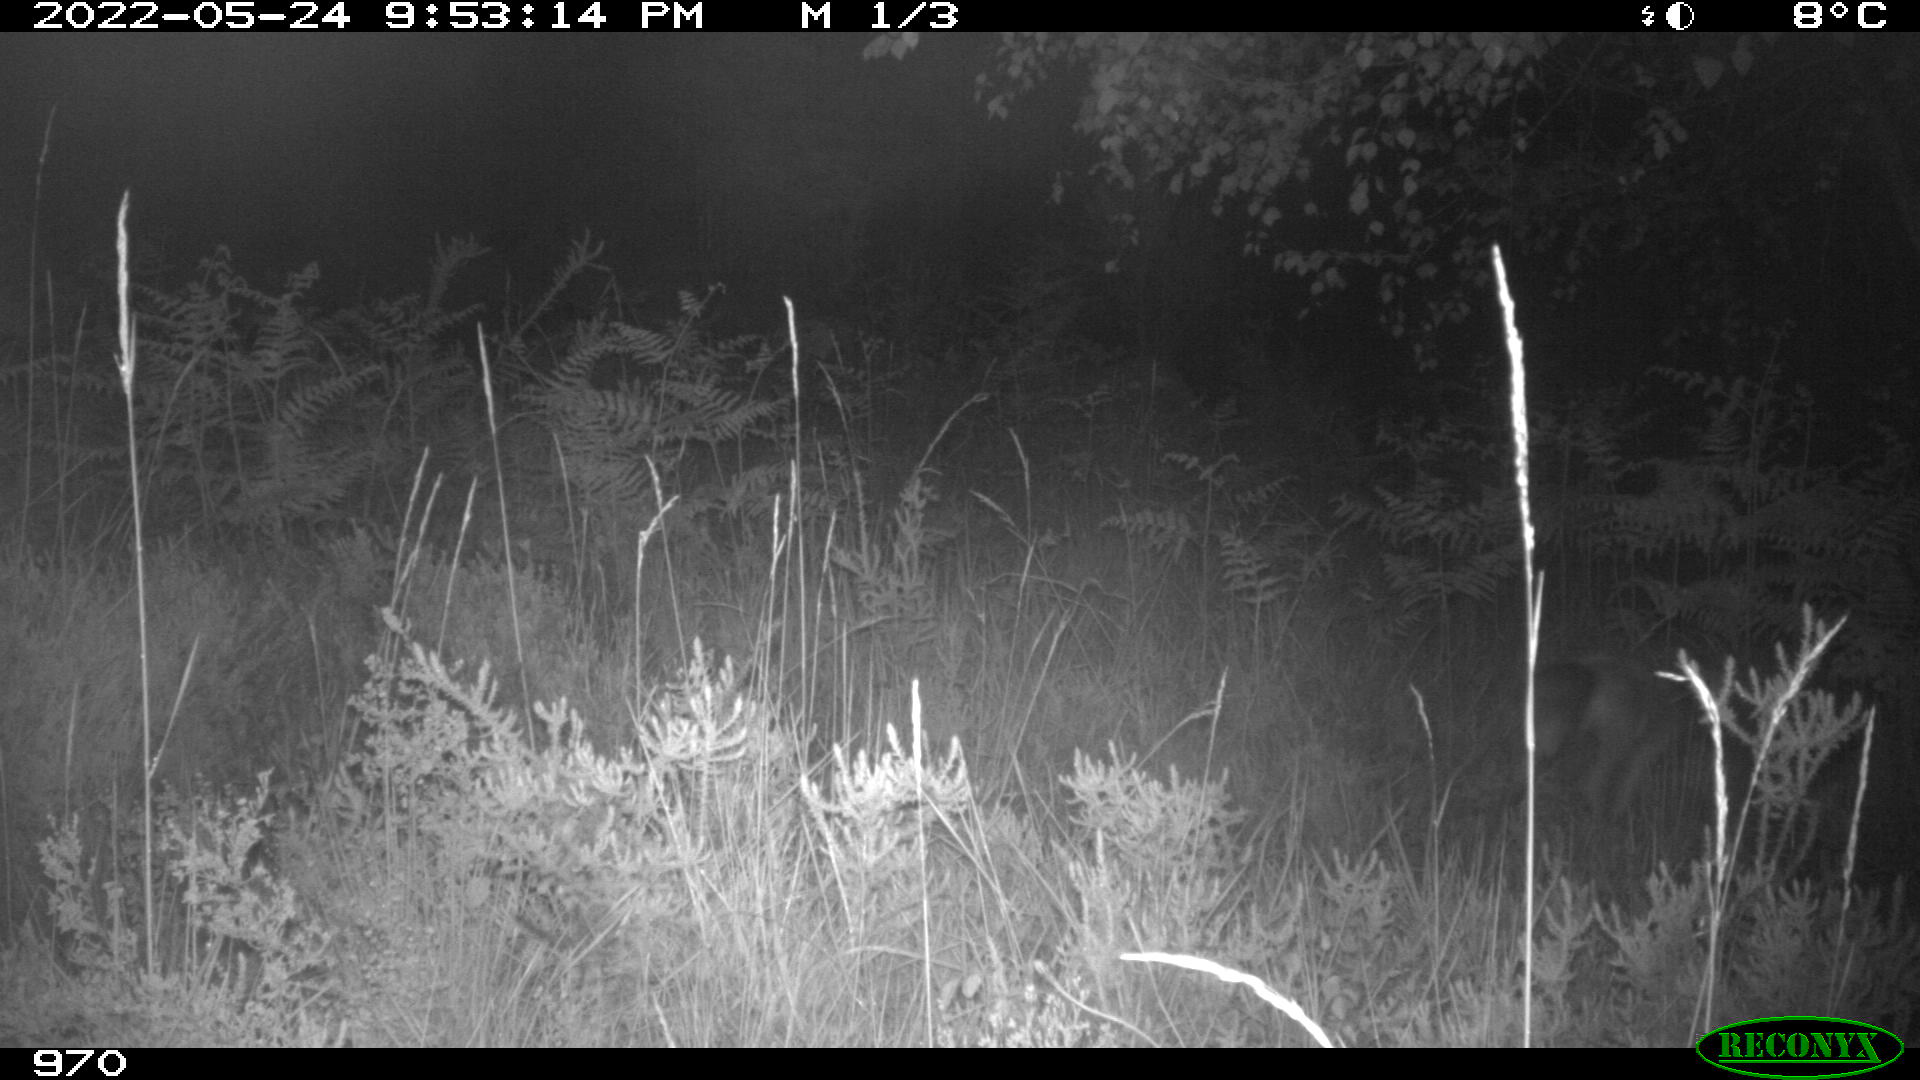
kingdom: Animalia
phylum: Chordata
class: Mammalia
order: Carnivora
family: Canidae
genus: Vulpes
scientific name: Vulpes vulpes
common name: Red fox
